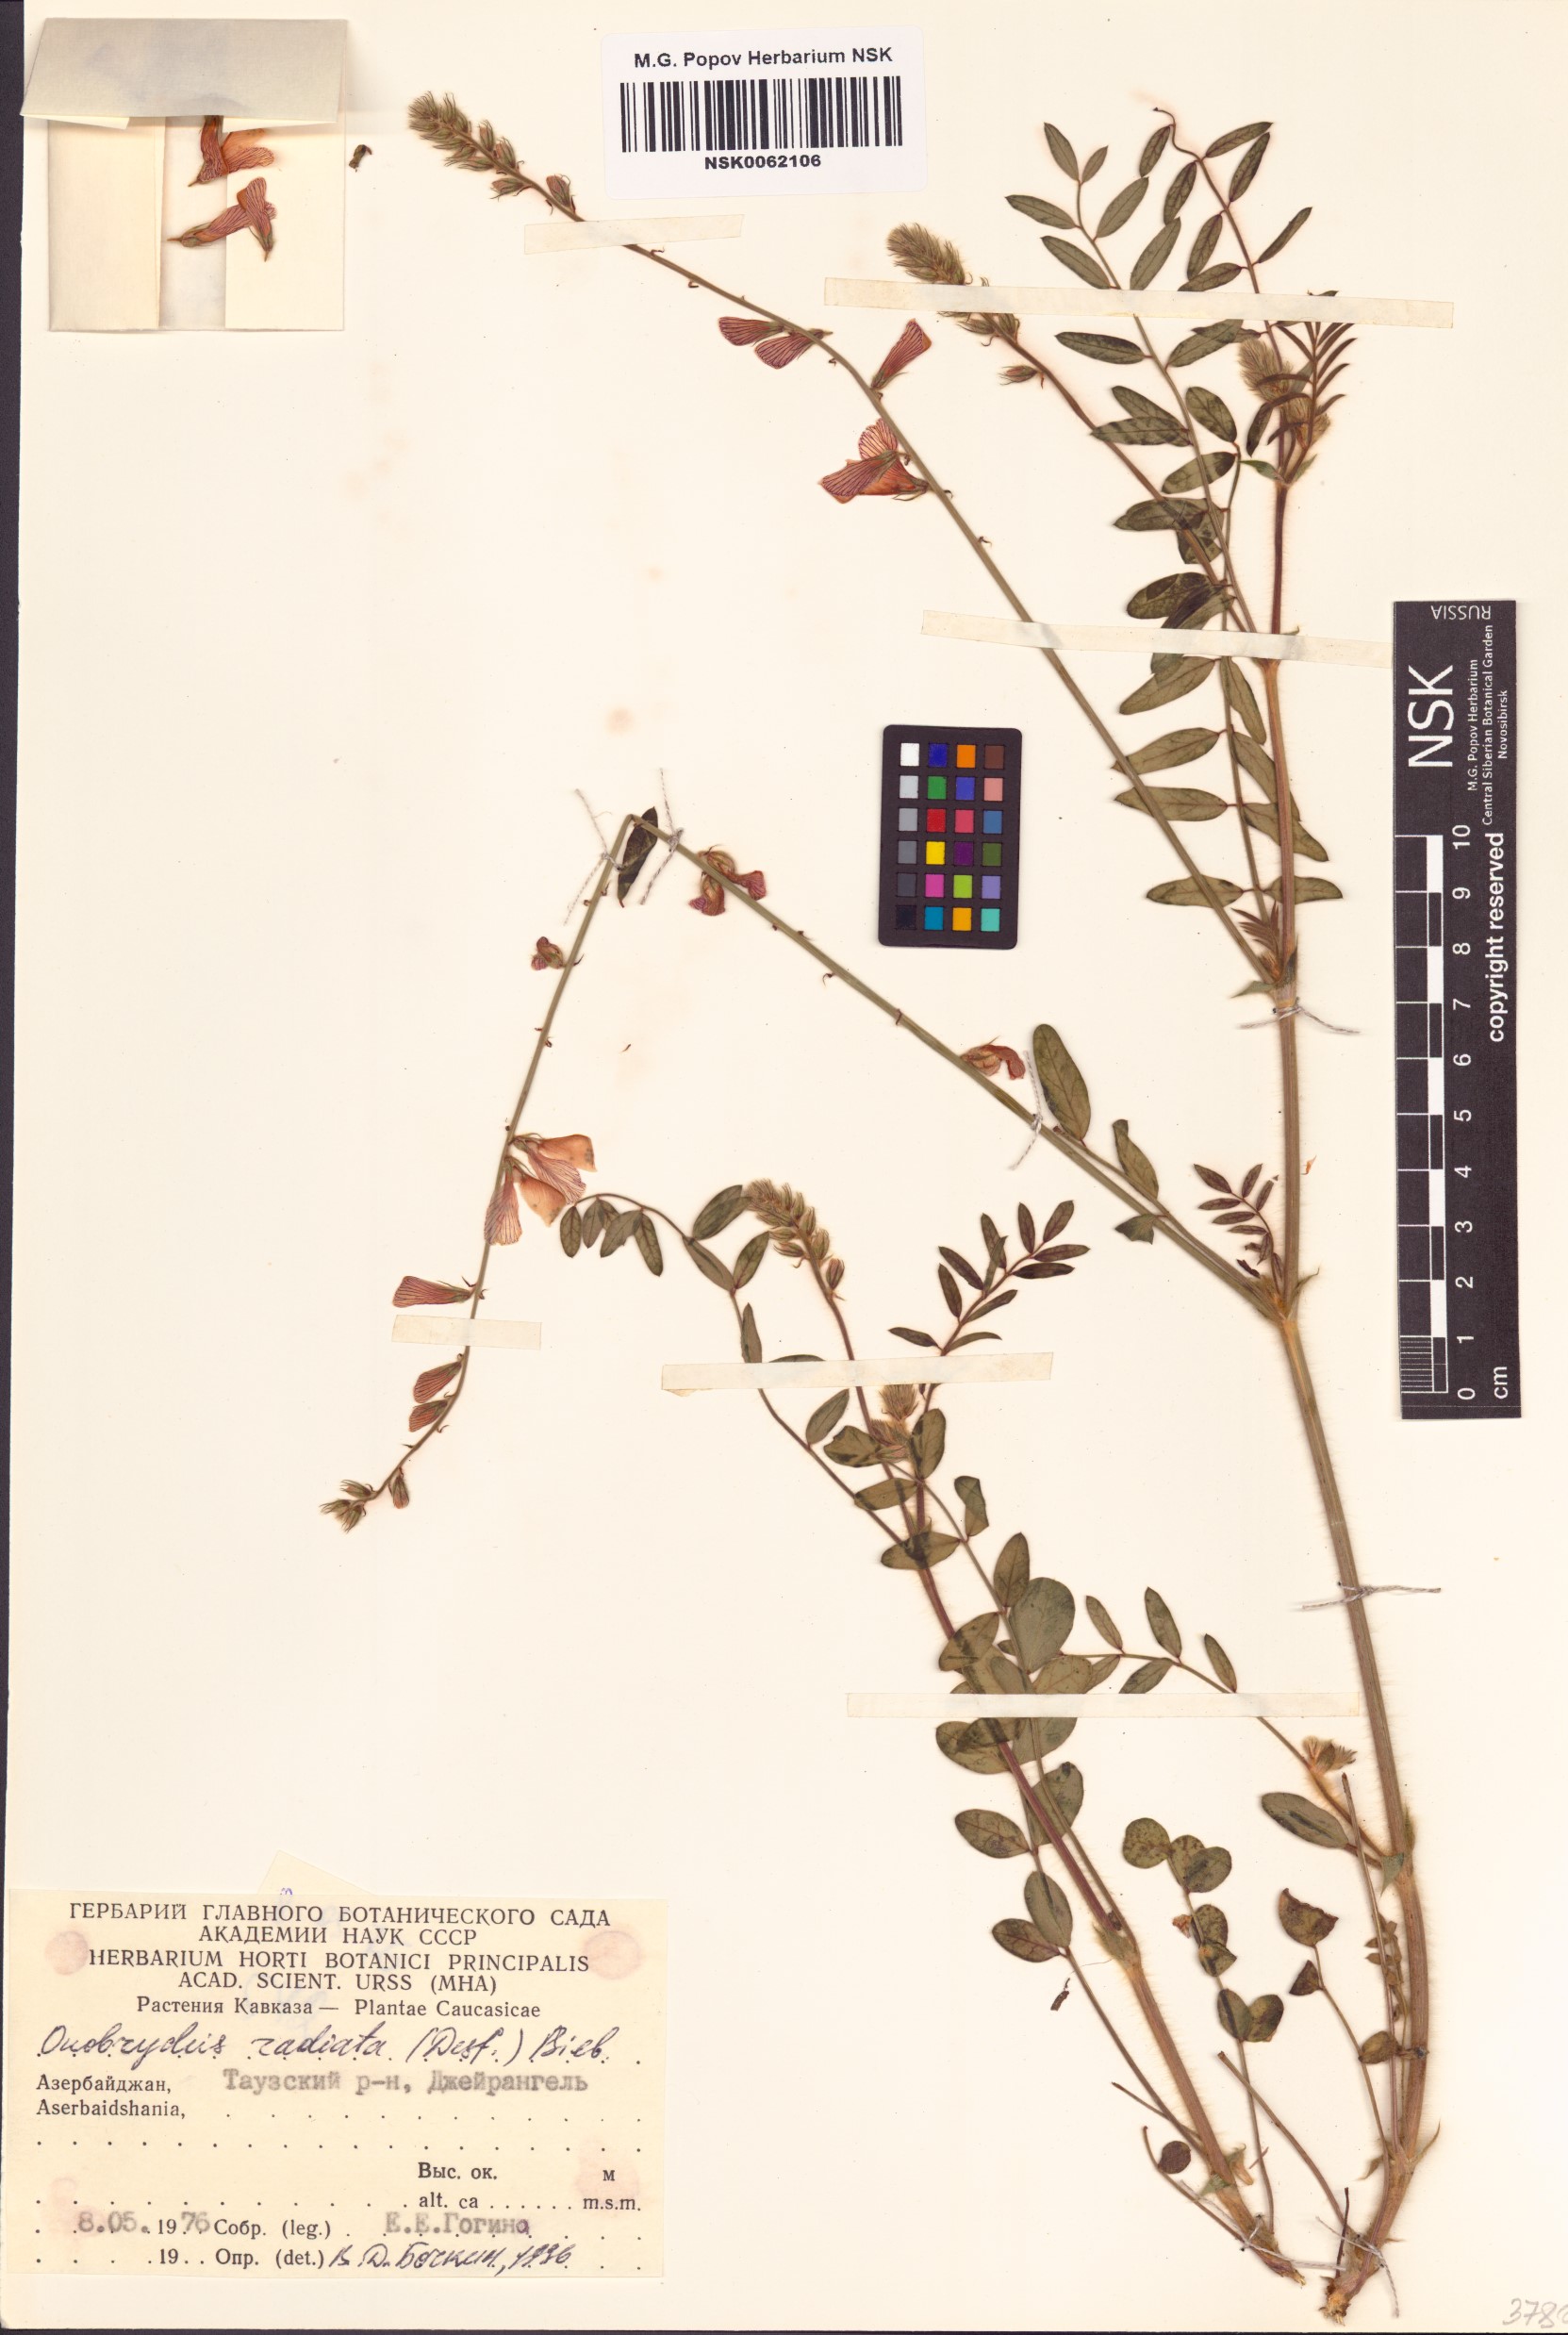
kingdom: Plantae
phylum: Tracheophyta
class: Magnoliopsida
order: Fabales
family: Fabaceae
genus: Onobrychis
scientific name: Onobrychis radiata
